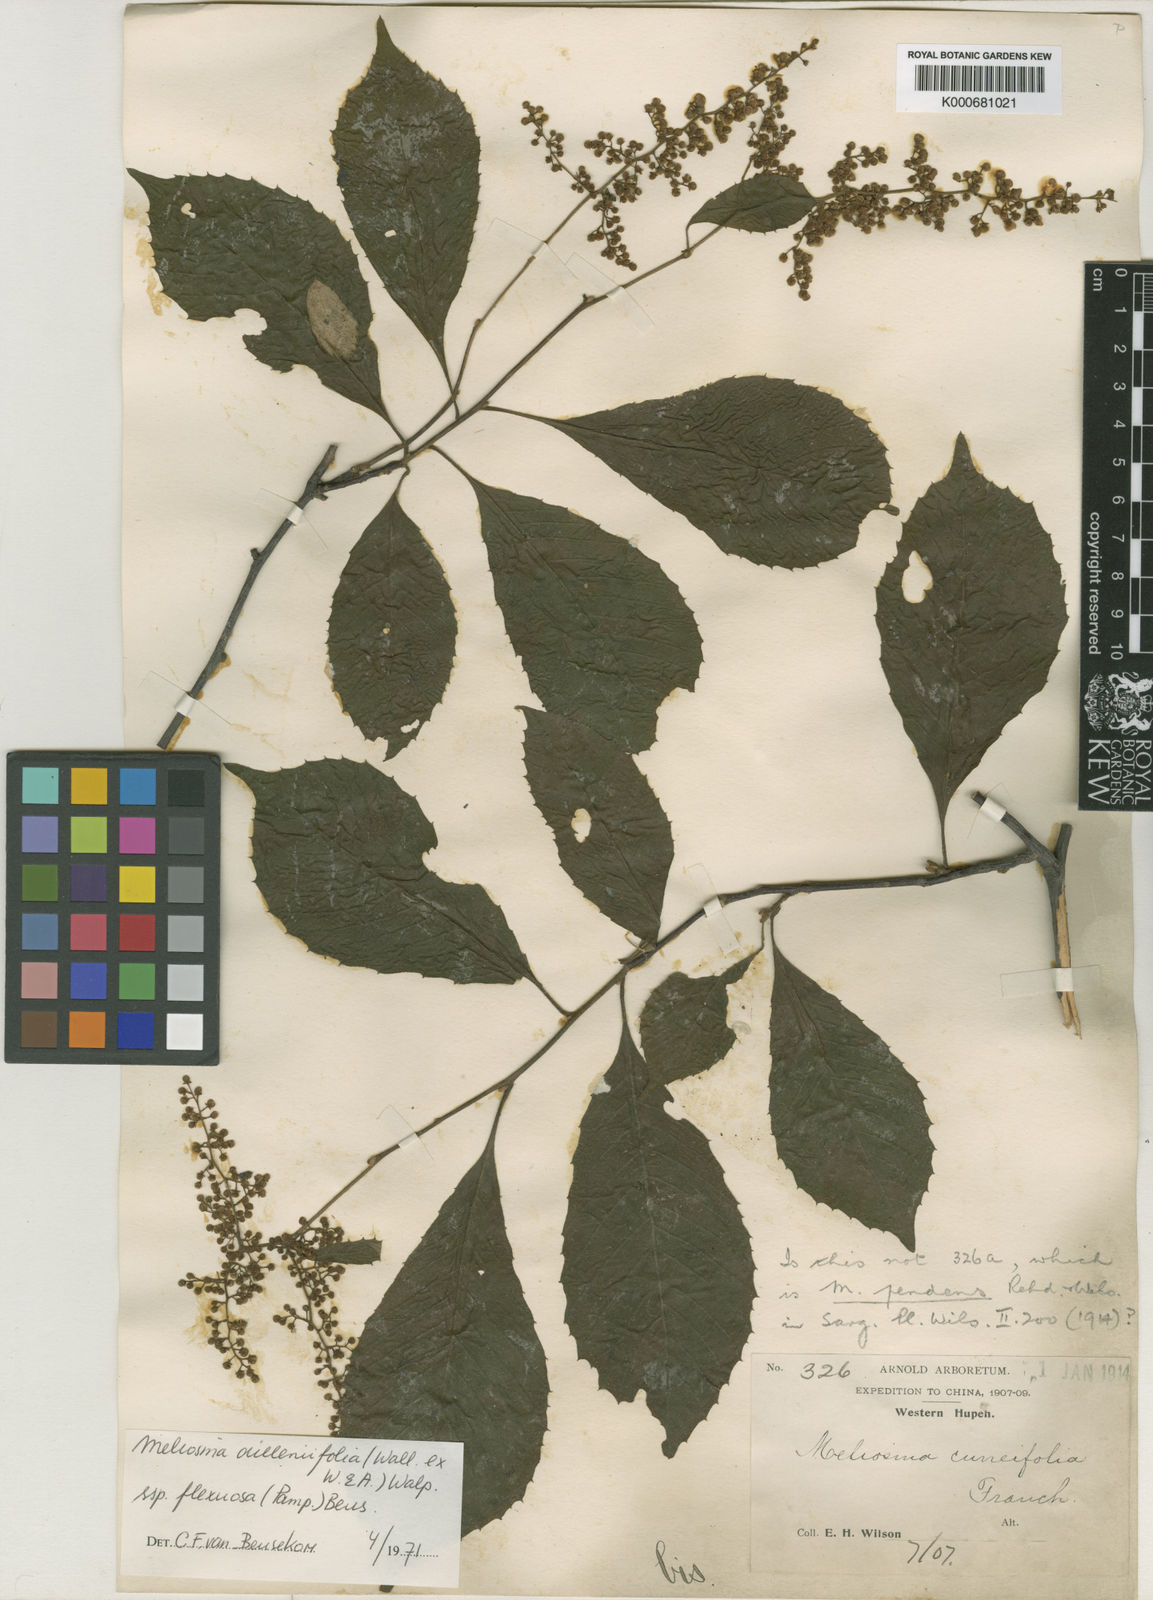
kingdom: Plantae
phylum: Tracheophyta
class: Magnoliopsida
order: Proteales
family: Sabiaceae
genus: Meliosma
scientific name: Meliosma flexuosa
